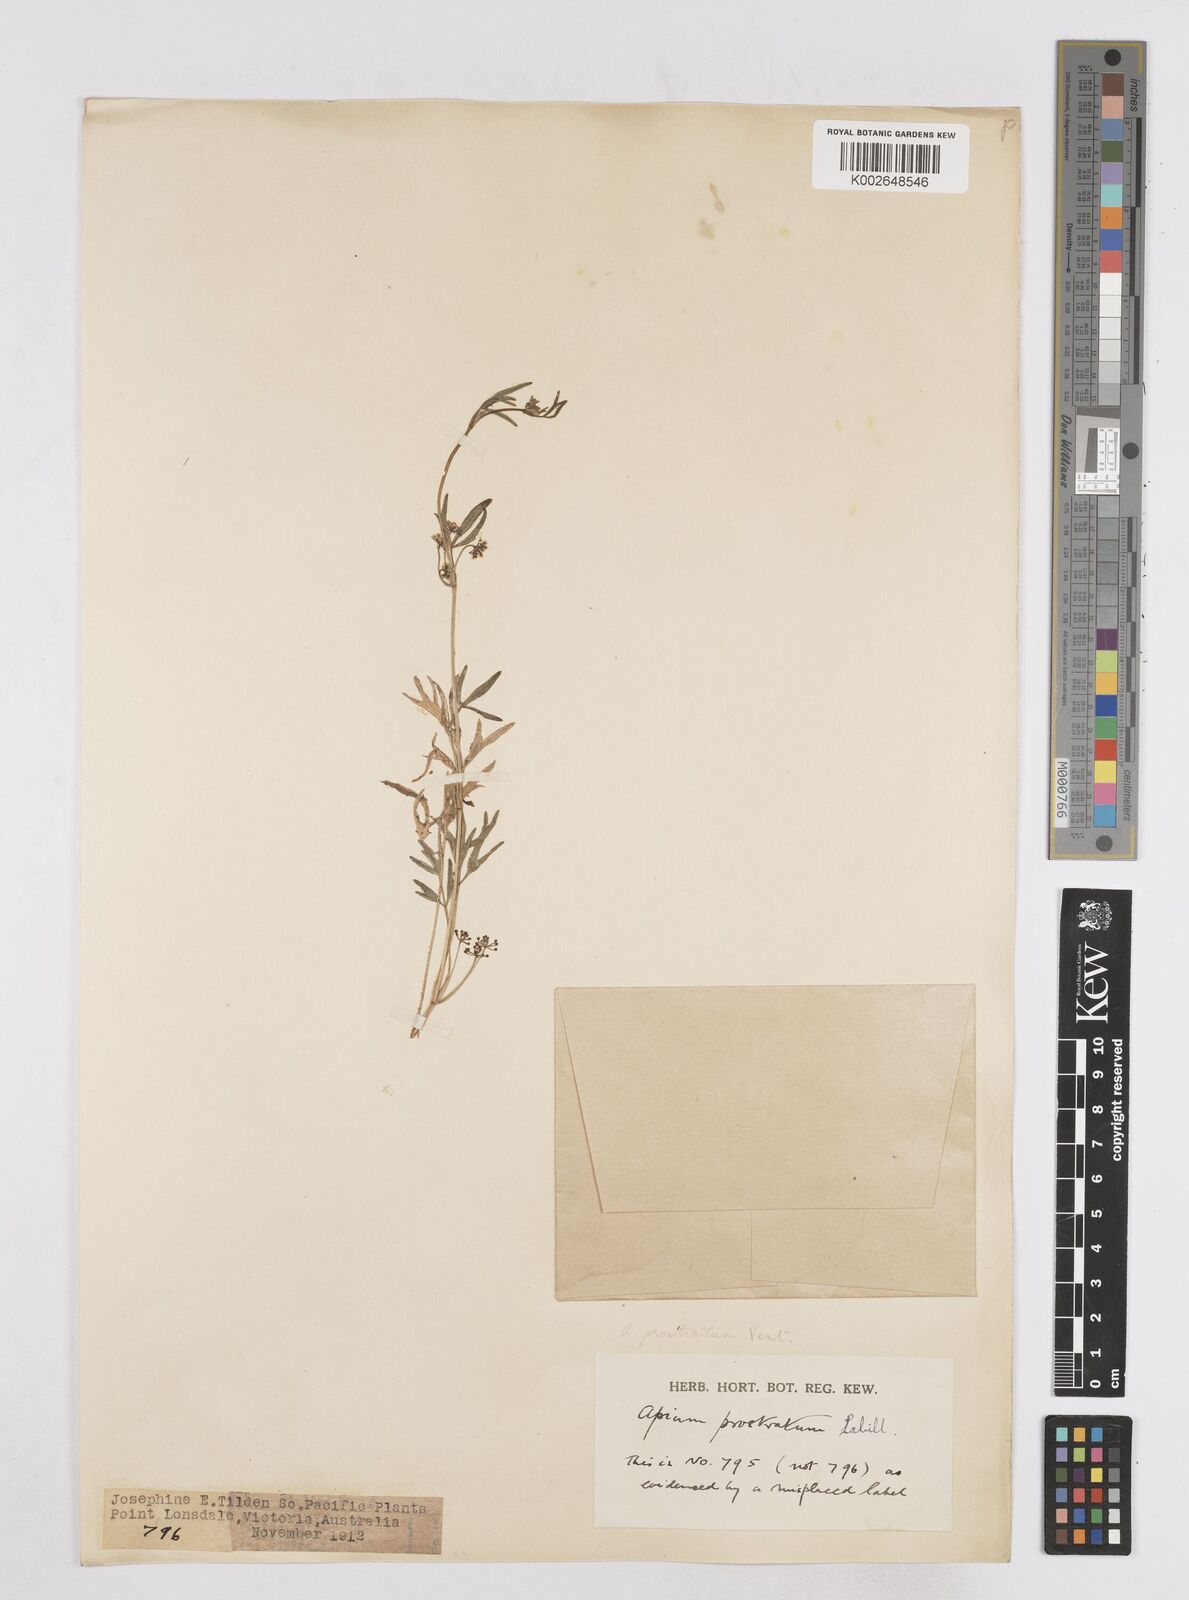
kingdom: Plantae
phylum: Tracheophyta
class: Magnoliopsida
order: Apiales
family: Apiaceae
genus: Apium
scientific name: Apium prostratum
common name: Prostrate marshwort
